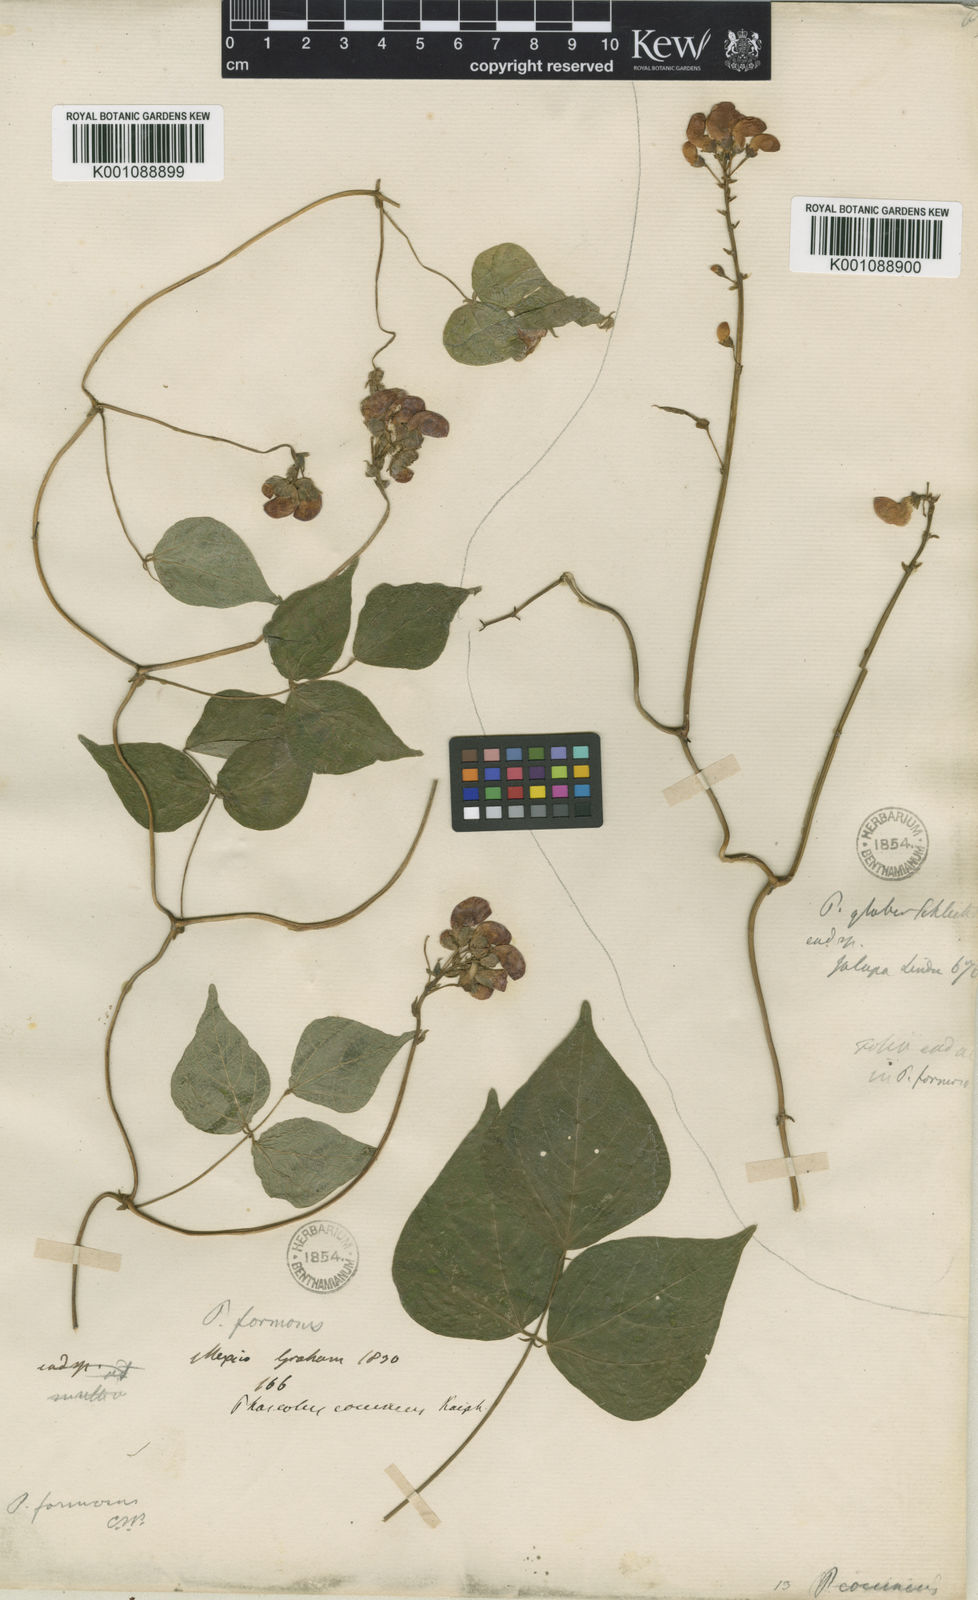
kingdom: Plantae
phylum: Tracheophyta
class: Magnoliopsida
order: Fabales
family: Fabaceae
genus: Phaseolus
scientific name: Phaseolus coccineus
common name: Runner bean
